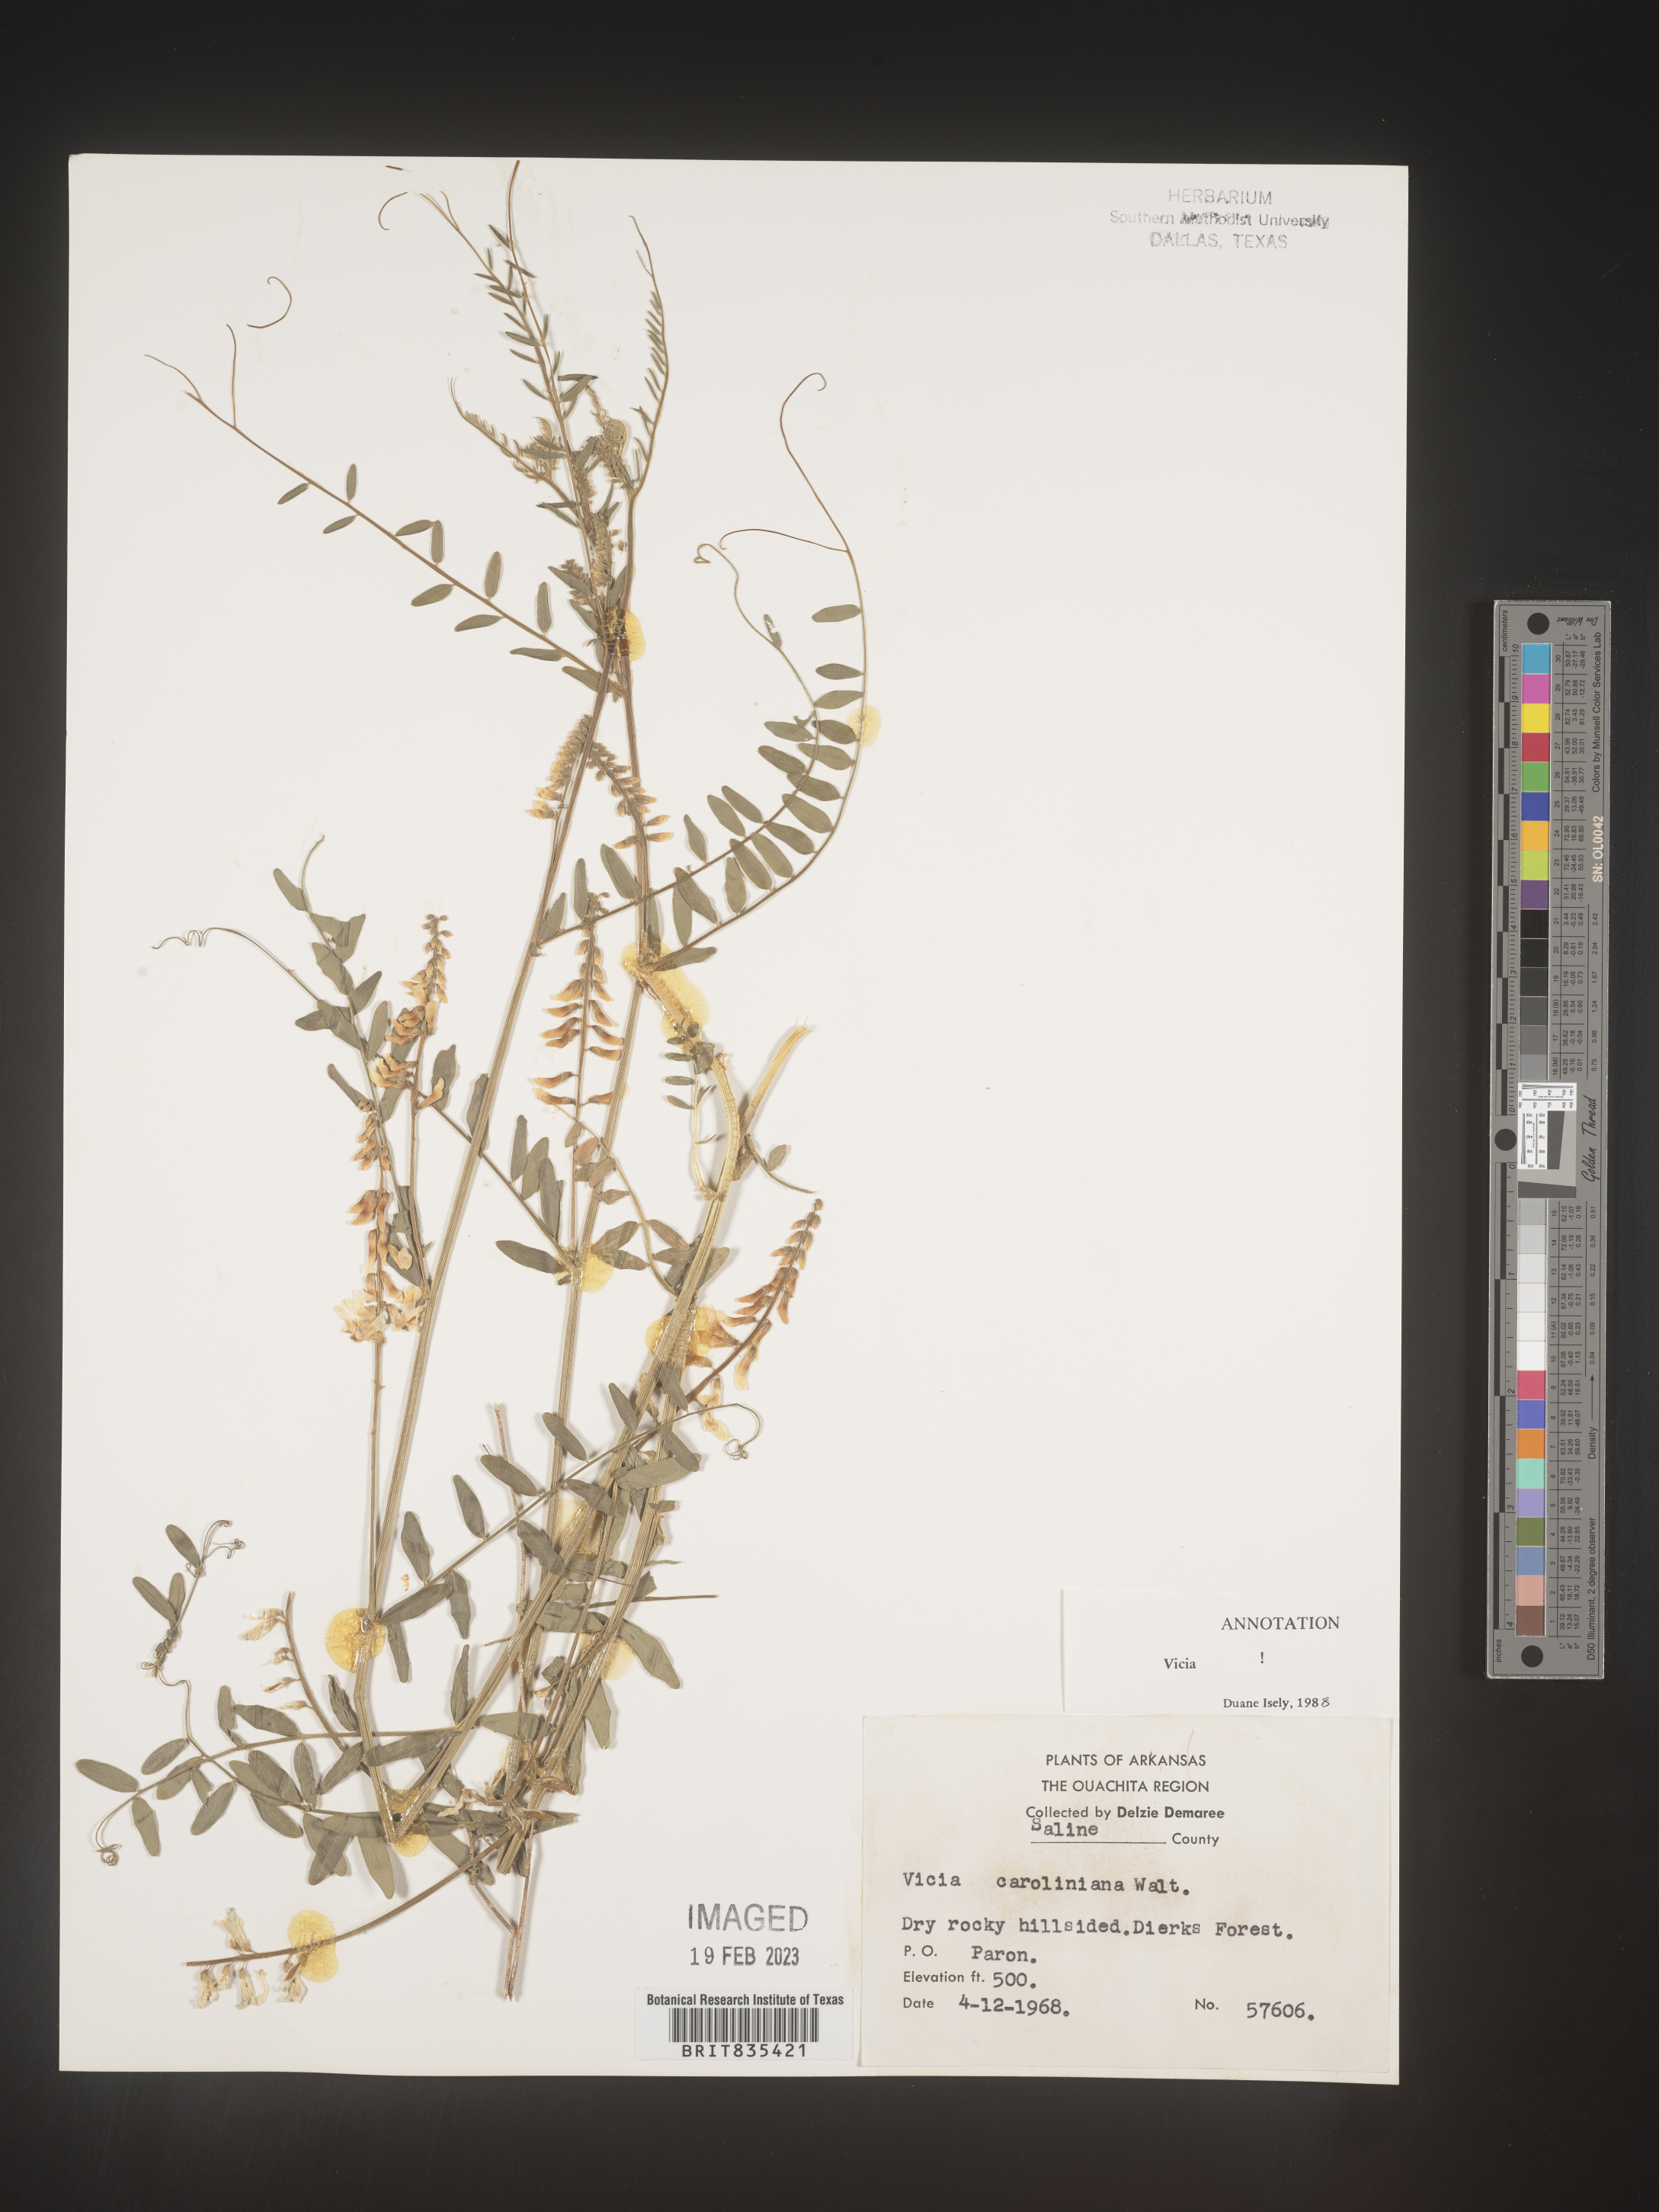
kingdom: Plantae
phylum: Tracheophyta
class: Magnoliopsida
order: Fabales
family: Fabaceae
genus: Vicia
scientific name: Vicia caroliniana
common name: Carolina vetch
